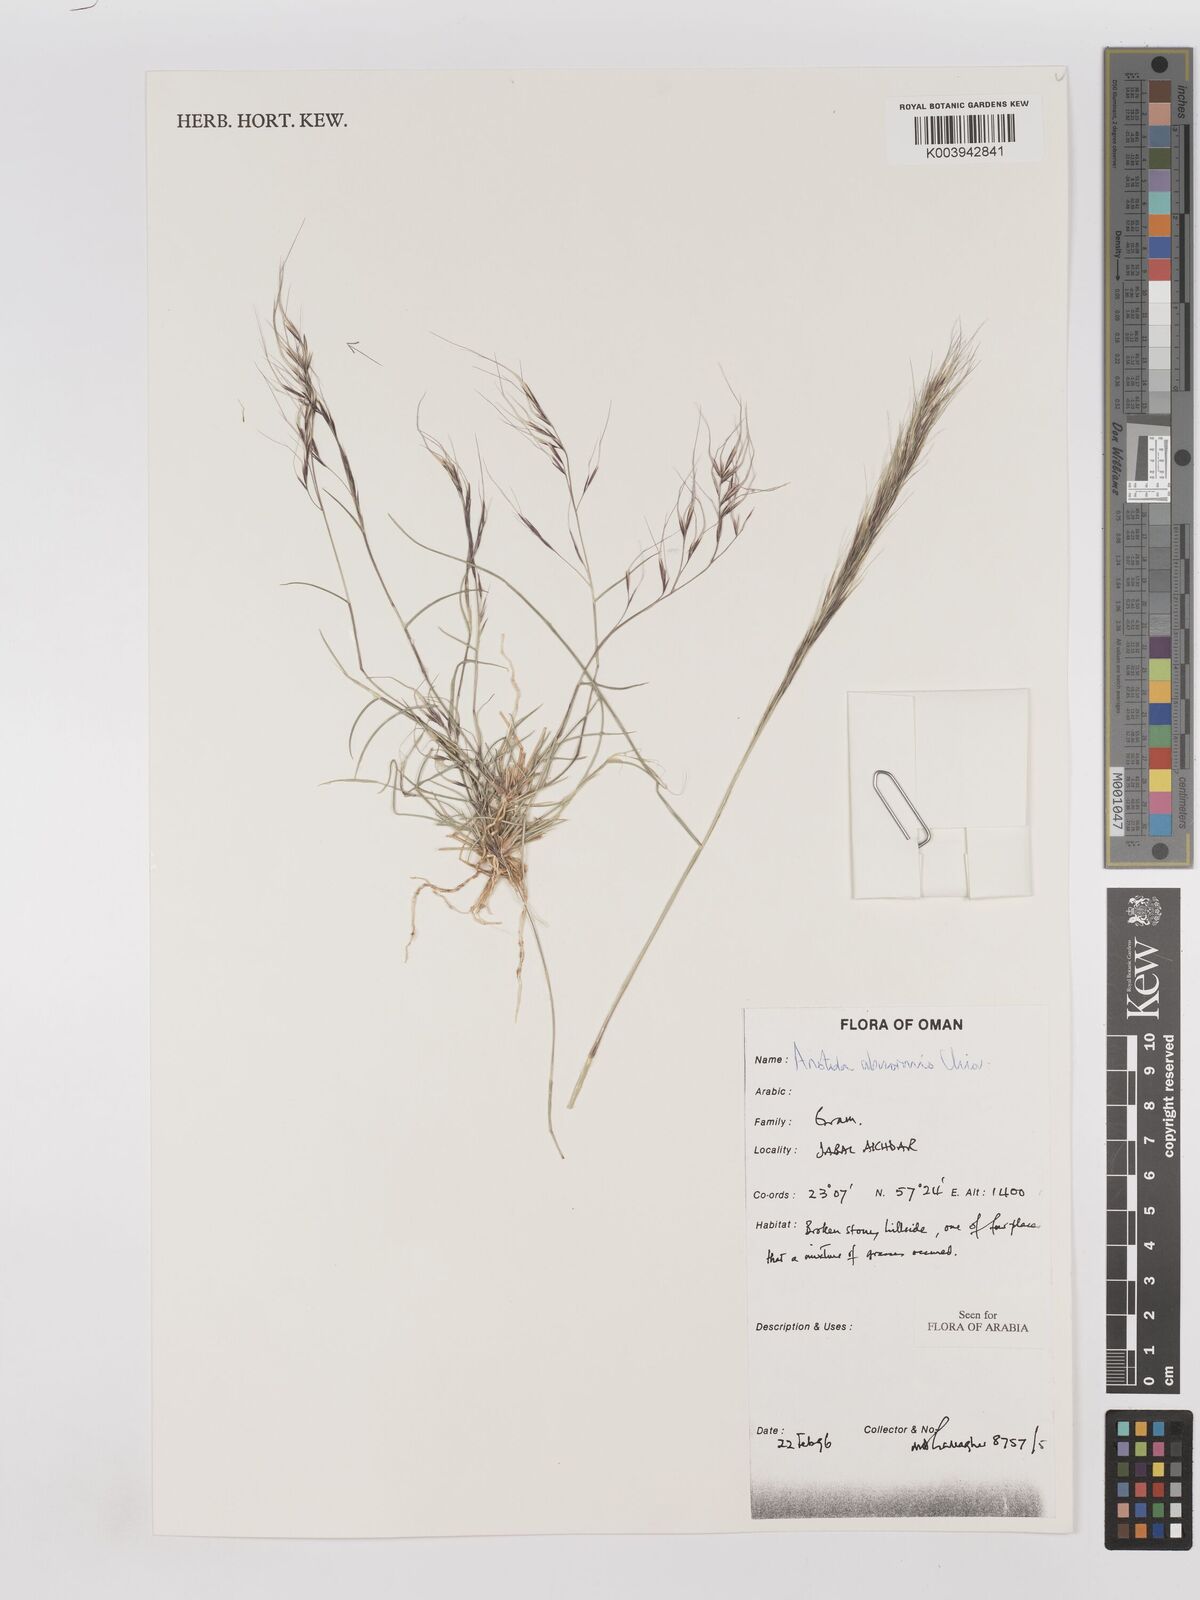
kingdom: Plantae
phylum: Tracheophyta
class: Liliopsida
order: Poales
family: Poaceae
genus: Aristida
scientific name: Aristida abnormis
